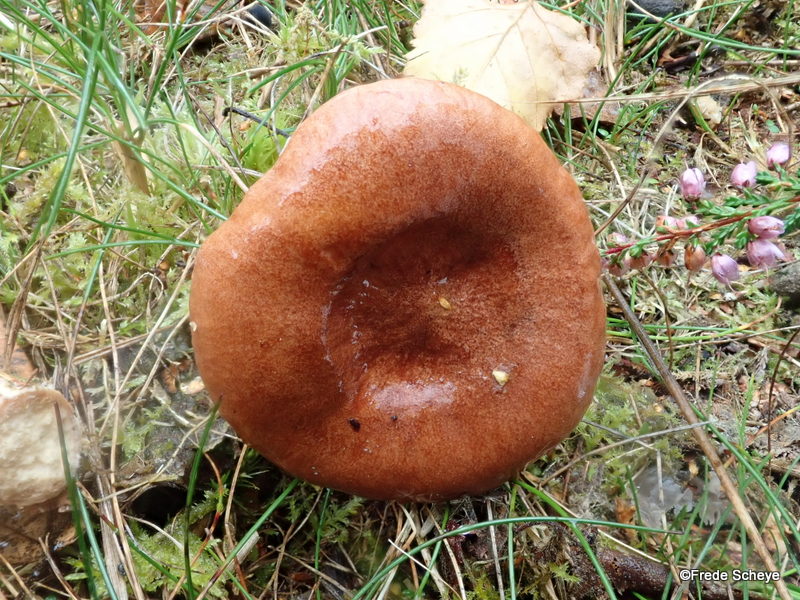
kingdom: Fungi
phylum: Basidiomycota
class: Agaricomycetes
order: Russulales
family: Russulaceae
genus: Lactarius
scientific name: Lactarius rufus
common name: rødbrun mælkehat
